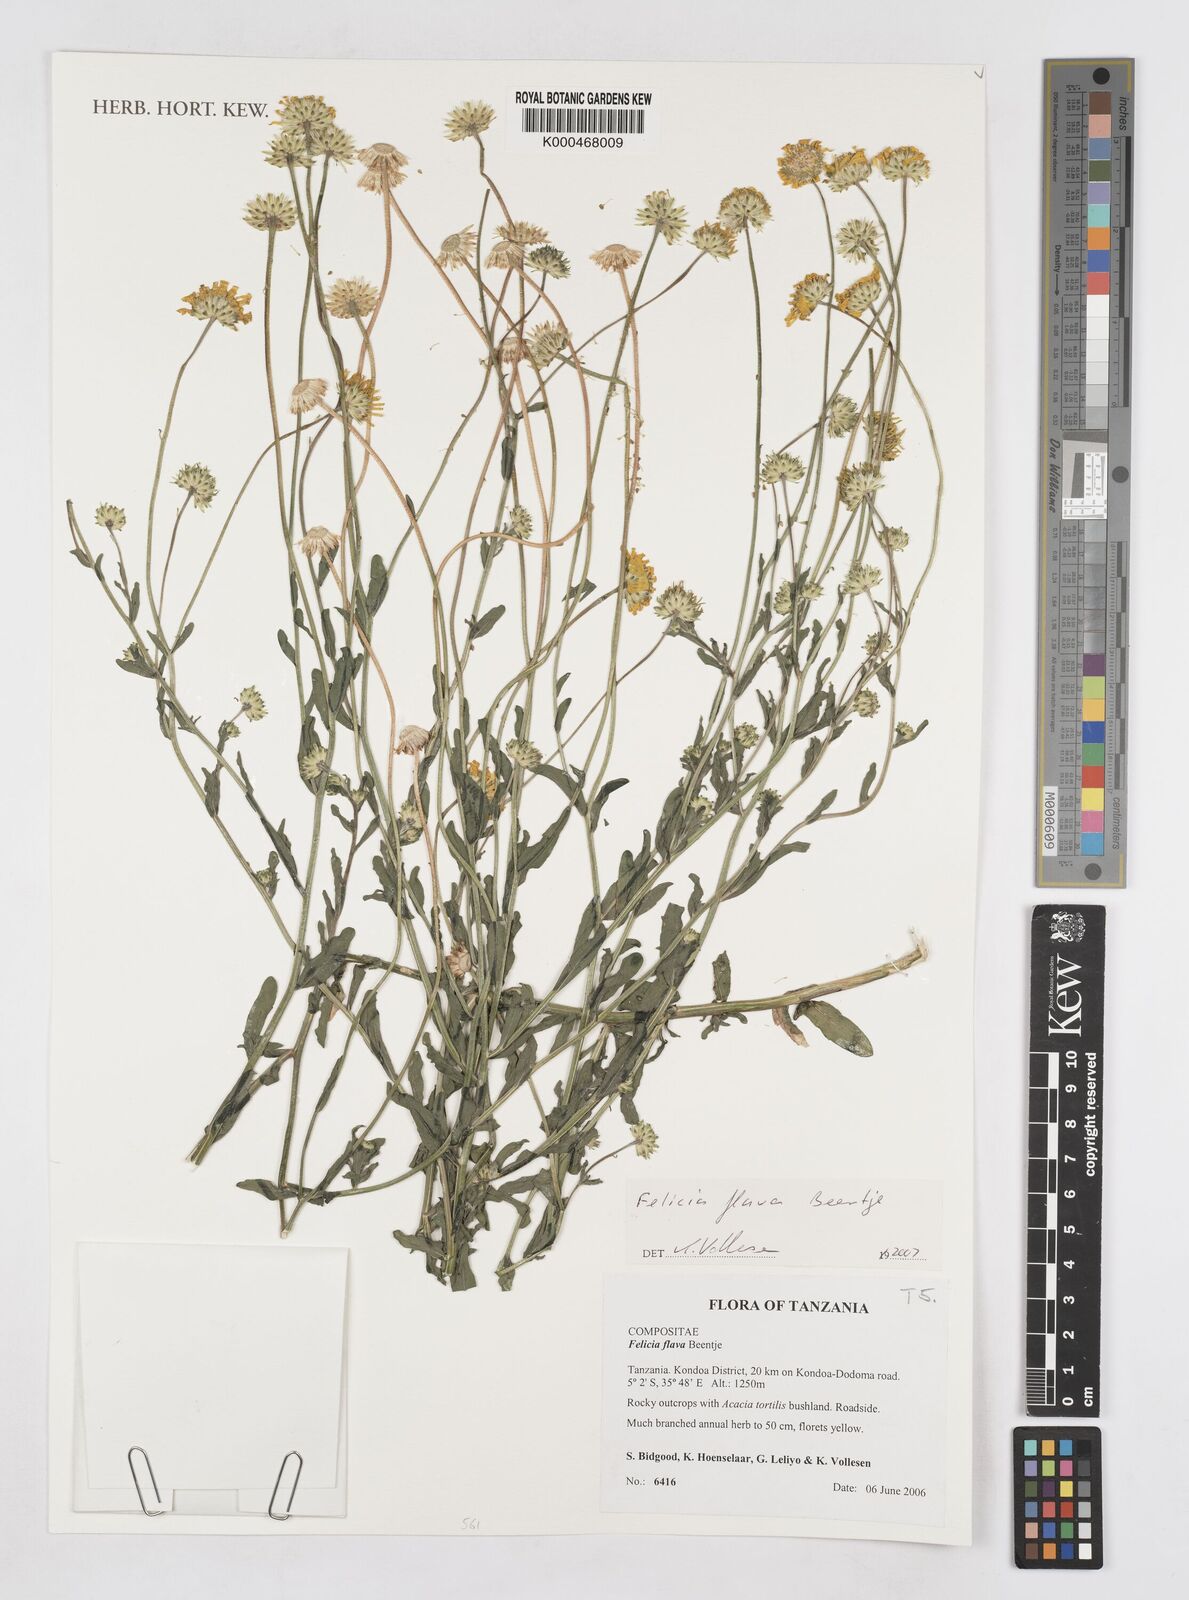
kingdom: Plantae
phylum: Tracheophyta
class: Magnoliopsida
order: Asterales
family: Asteraceae
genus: Felicia
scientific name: Felicia flava
